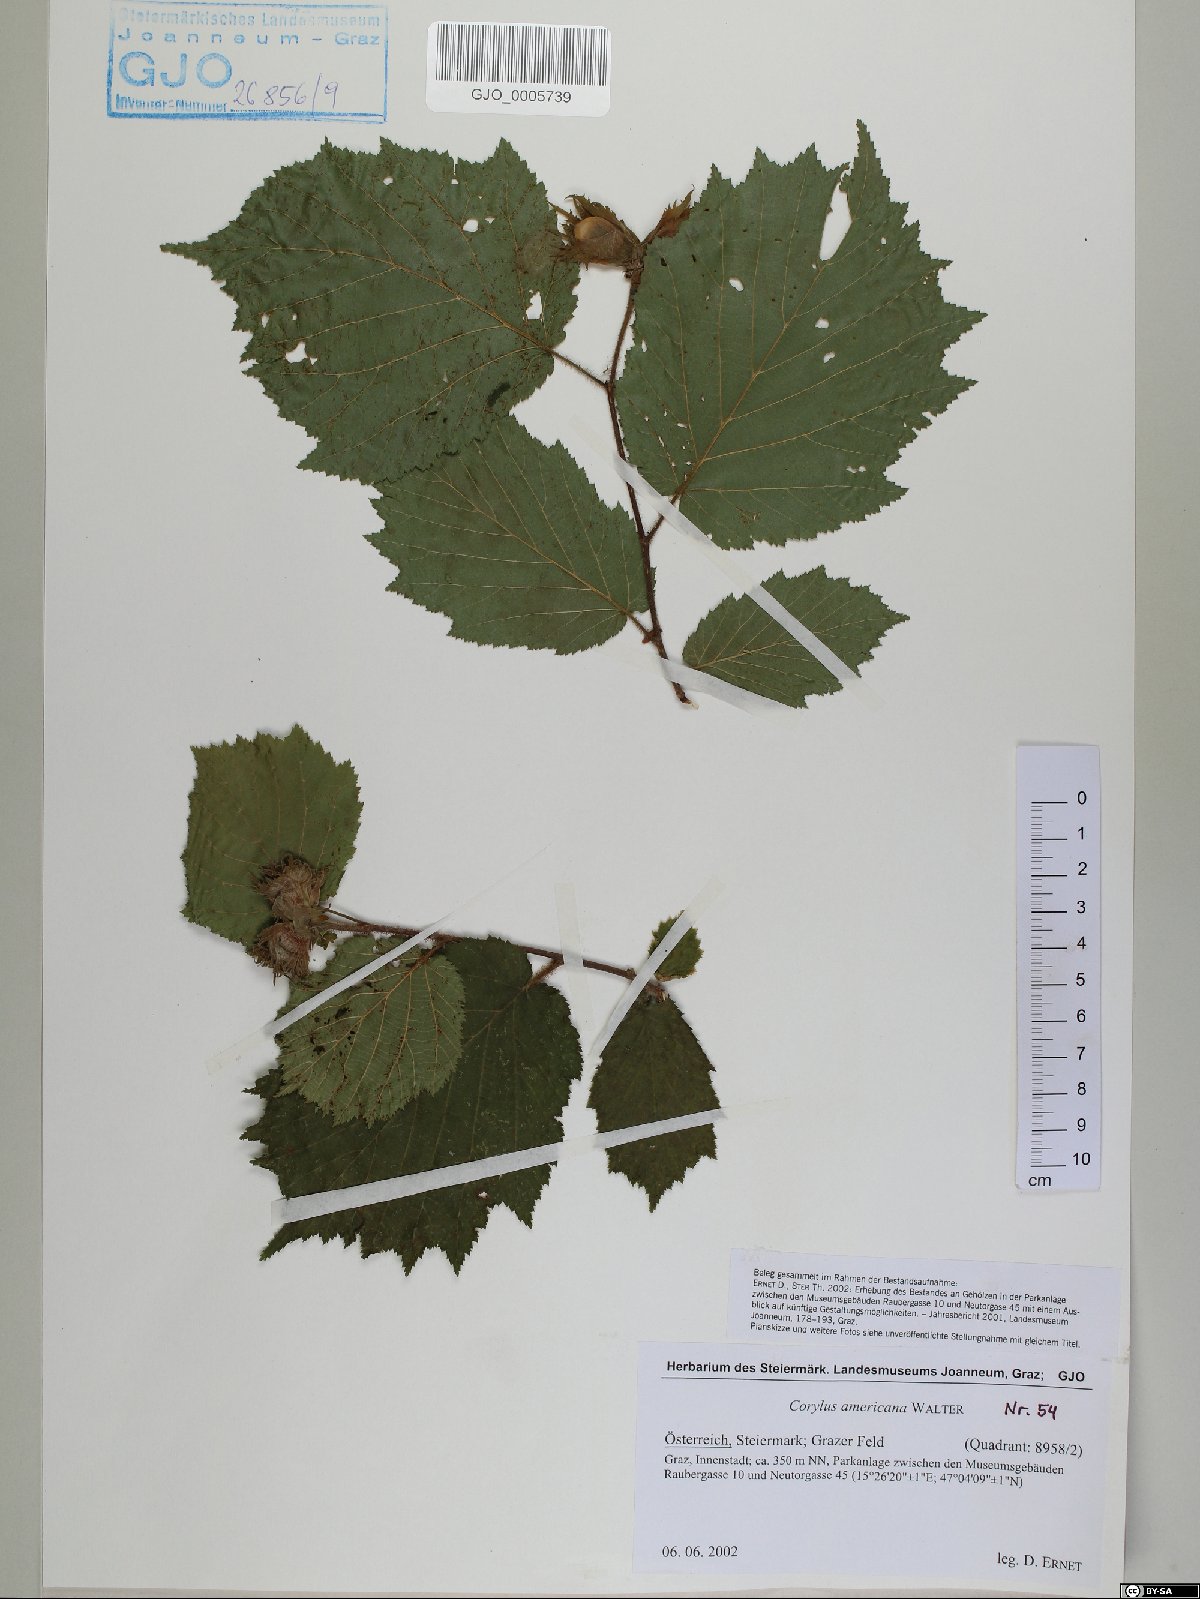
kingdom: Plantae
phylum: Tracheophyta
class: Magnoliopsida
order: Fagales
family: Betulaceae
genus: Corylus
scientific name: Corylus americana
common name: American hazel
